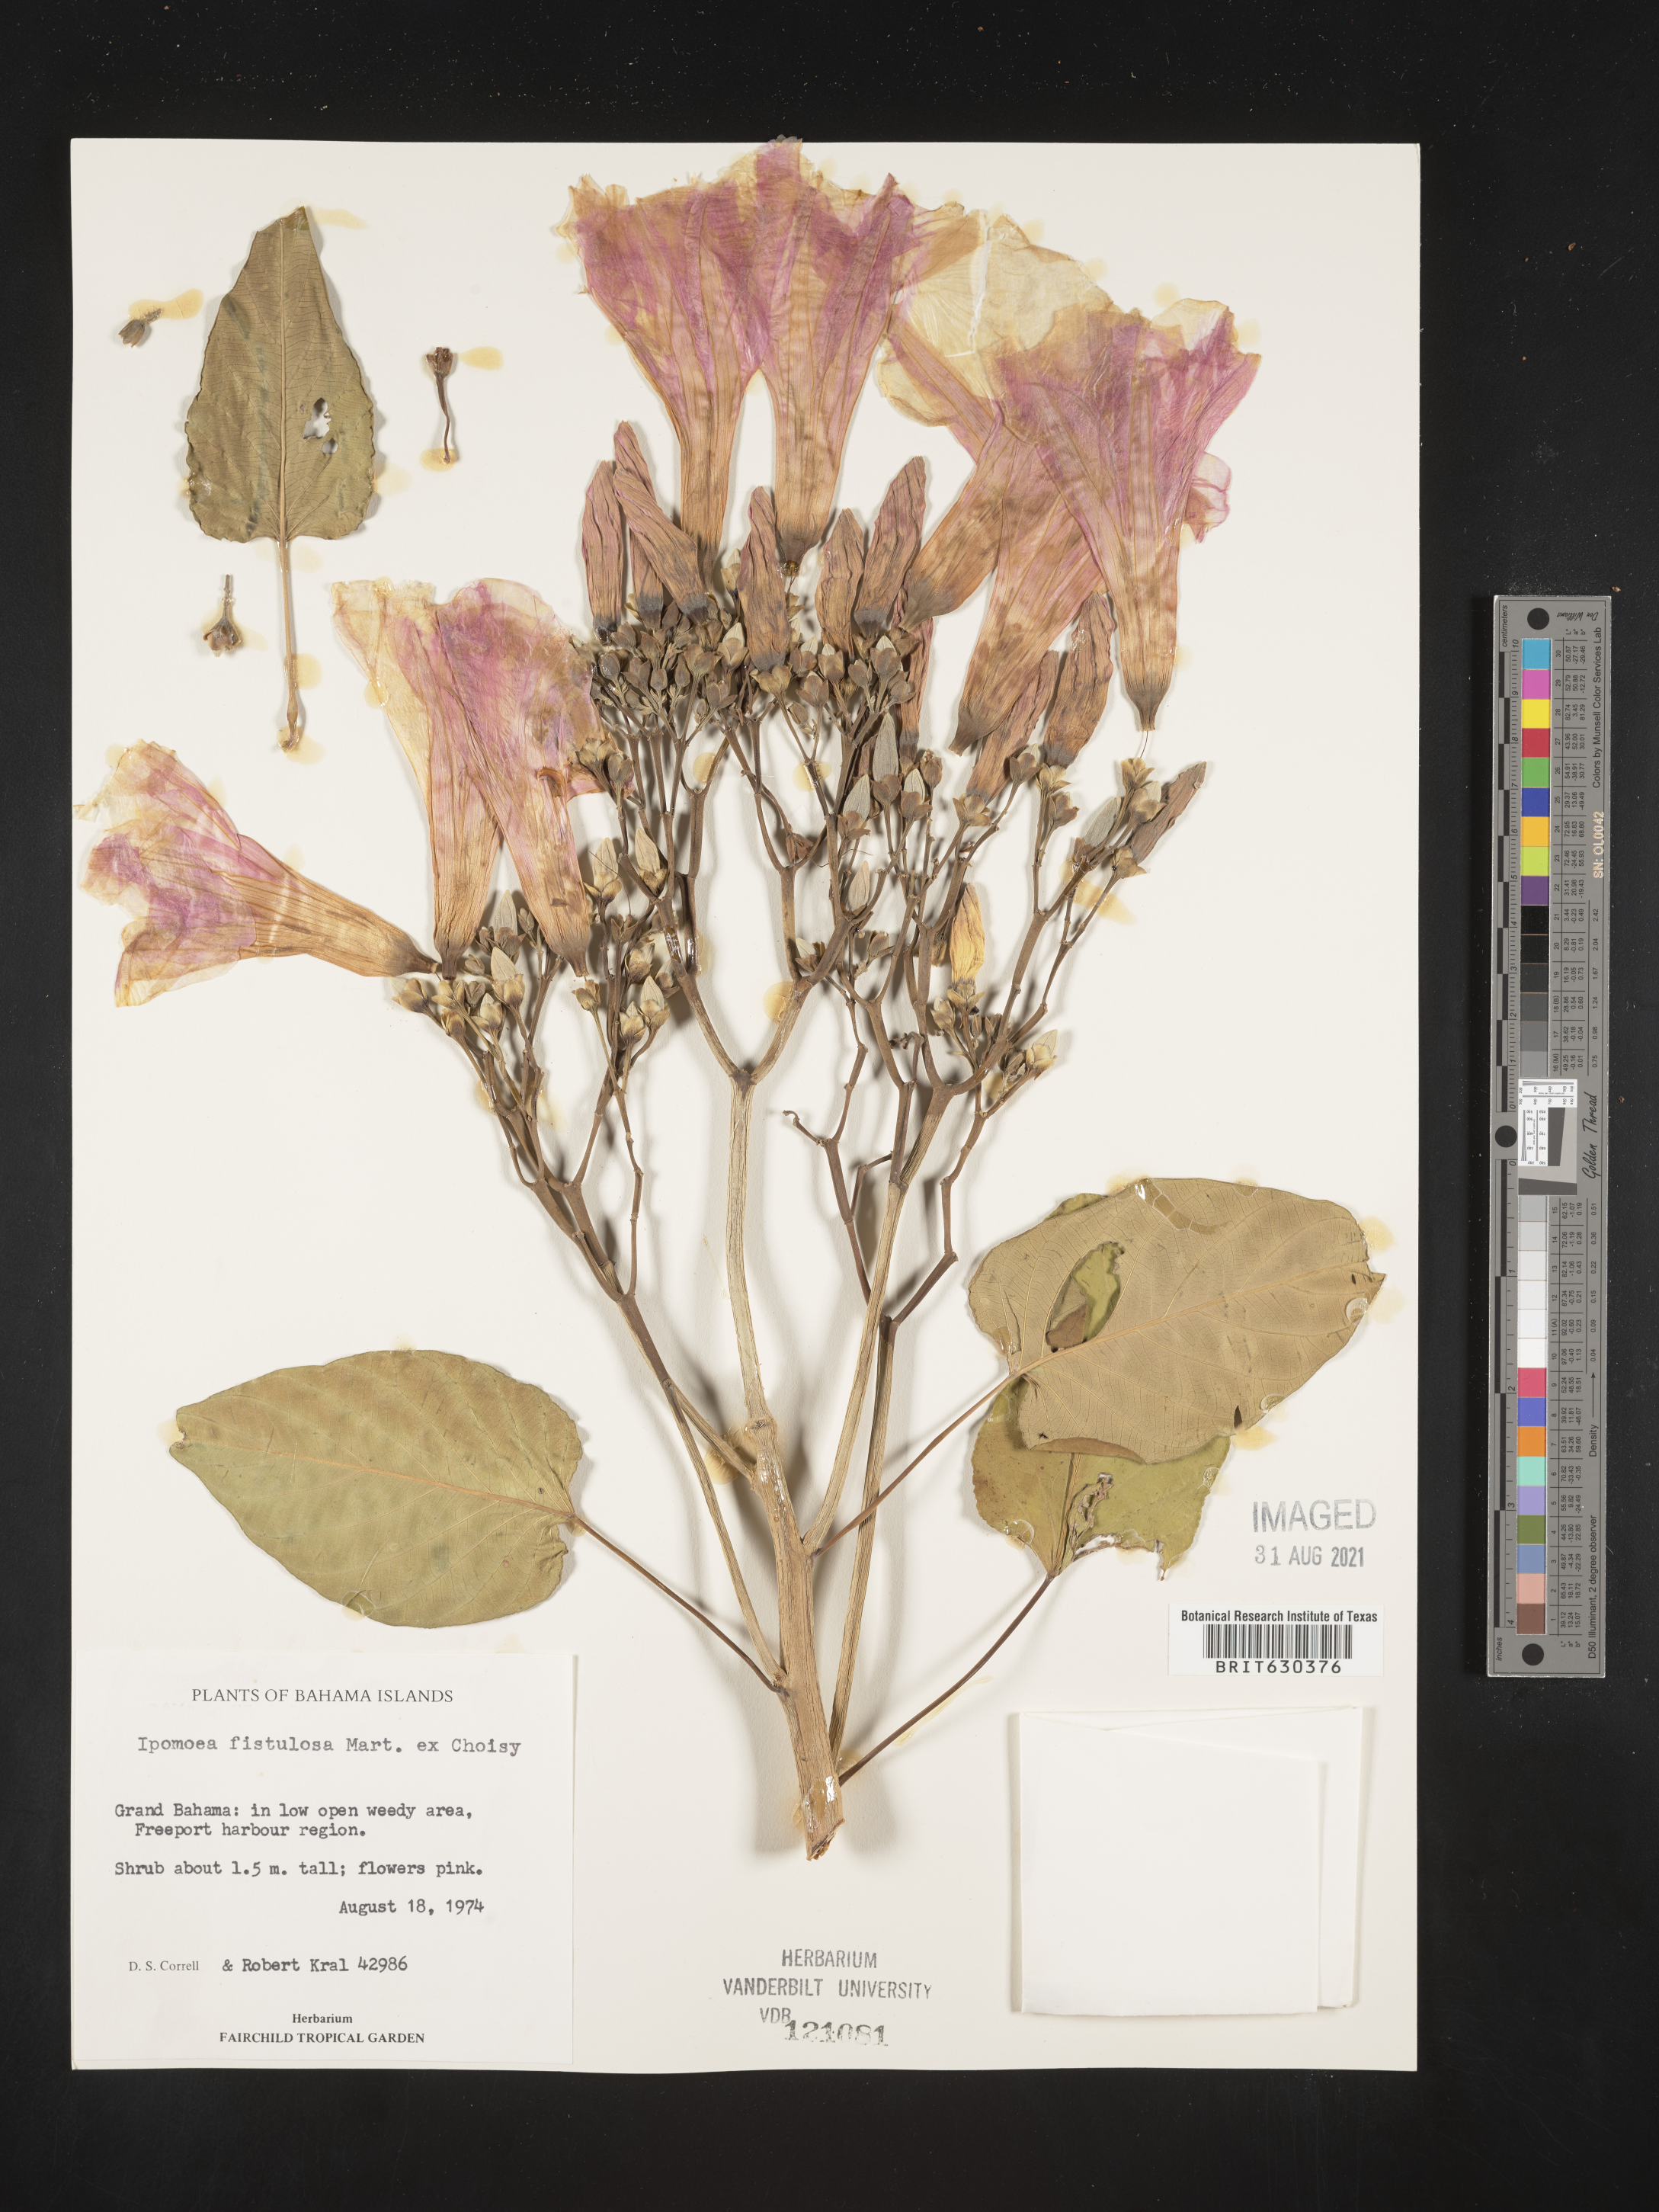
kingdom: Plantae
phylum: Tracheophyta
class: Magnoliopsida
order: Solanales
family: Convolvulaceae
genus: Ipomoea
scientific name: Ipomoea carnea
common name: Morning-glory
